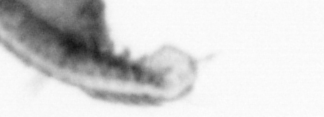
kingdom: Animalia
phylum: Annelida
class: Polychaeta
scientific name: Polychaeta
